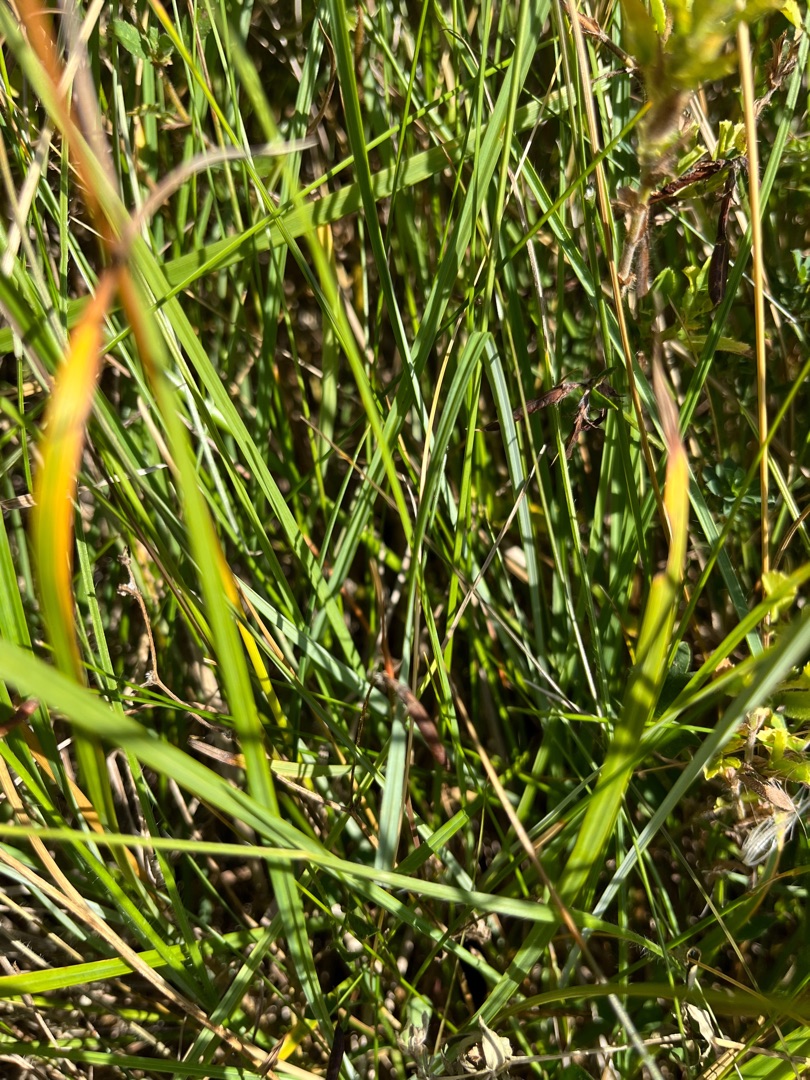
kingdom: Plantae
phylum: Tracheophyta
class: Liliopsida
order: Poales
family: Cyperaceae
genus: Carex
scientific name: Carex flacca
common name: Blågrøn star
